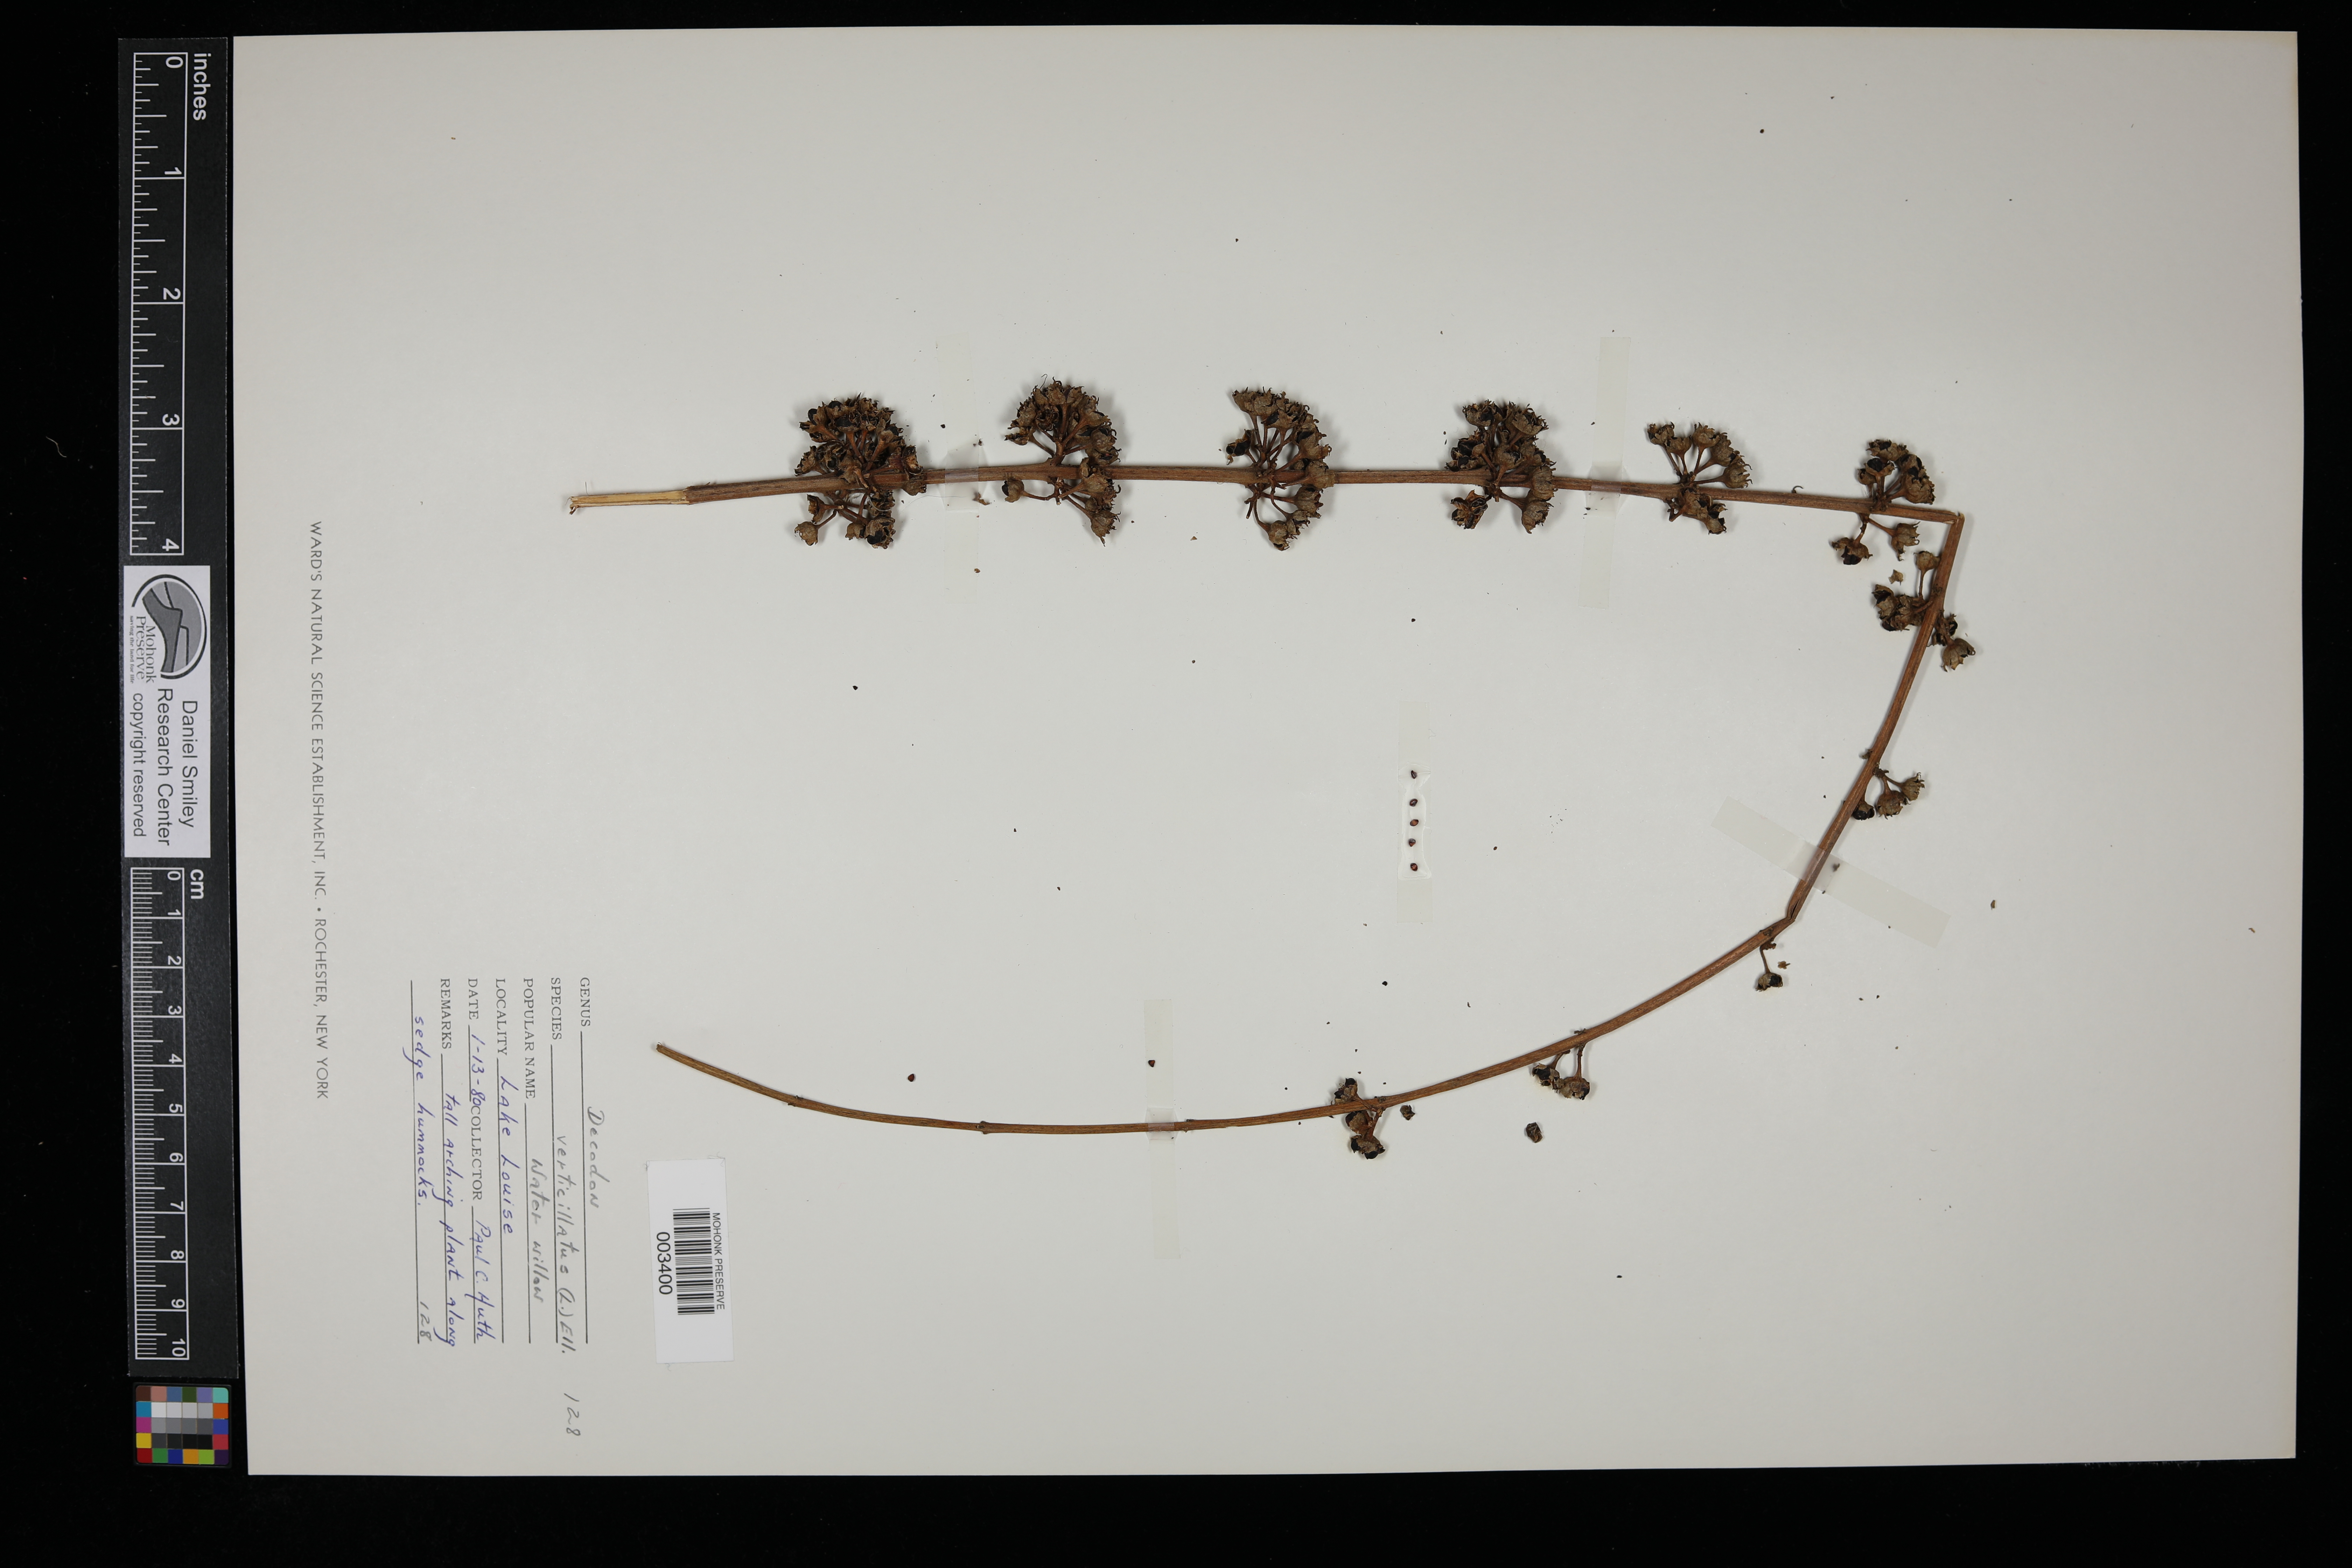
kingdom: Plantae
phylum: Tracheophyta
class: Magnoliopsida
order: Myrtales
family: Lythraceae
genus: Decodon
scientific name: Decodon verticillatus
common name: Hairy swamp loosestrife
